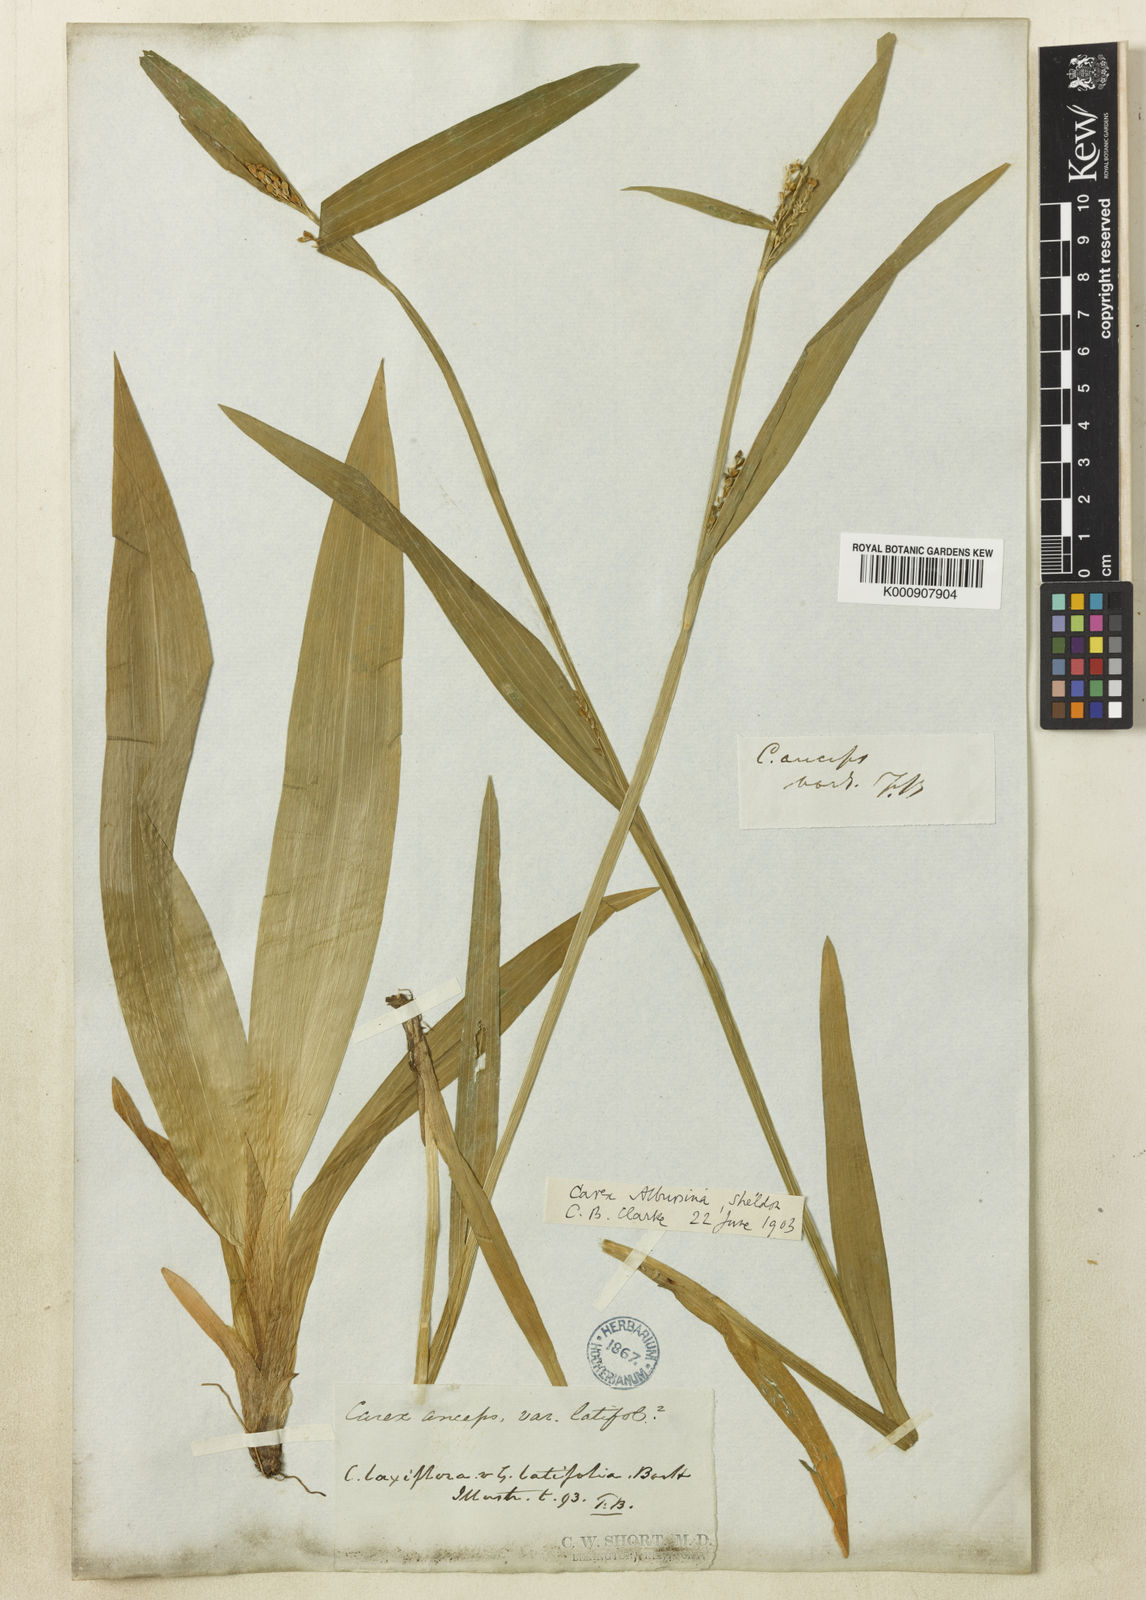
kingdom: Plantae
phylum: Tracheophyta
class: Liliopsida
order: Poales
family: Cyperaceae
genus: Carex
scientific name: Carex albursina
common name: Blunt-scale wood sedge
